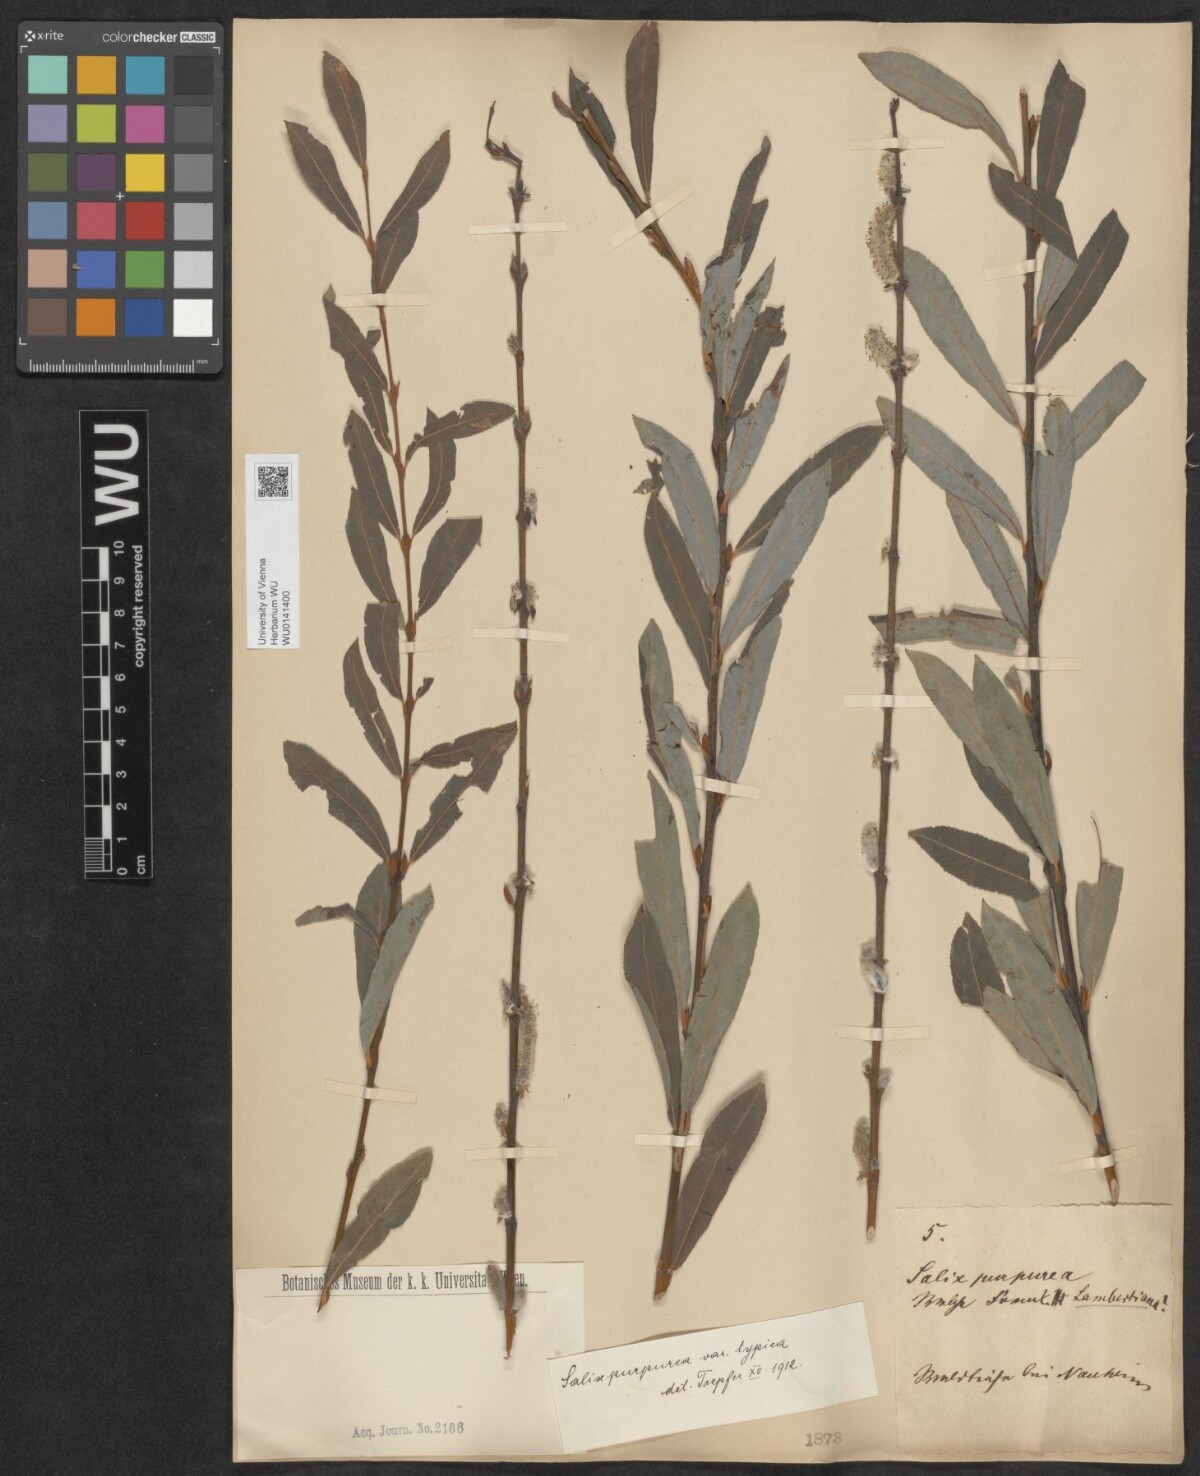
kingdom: Plantae
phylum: Tracheophyta
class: Magnoliopsida
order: Malpighiales
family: Salicaceae
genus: Salix
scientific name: Salix purpurea
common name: Purple willow
